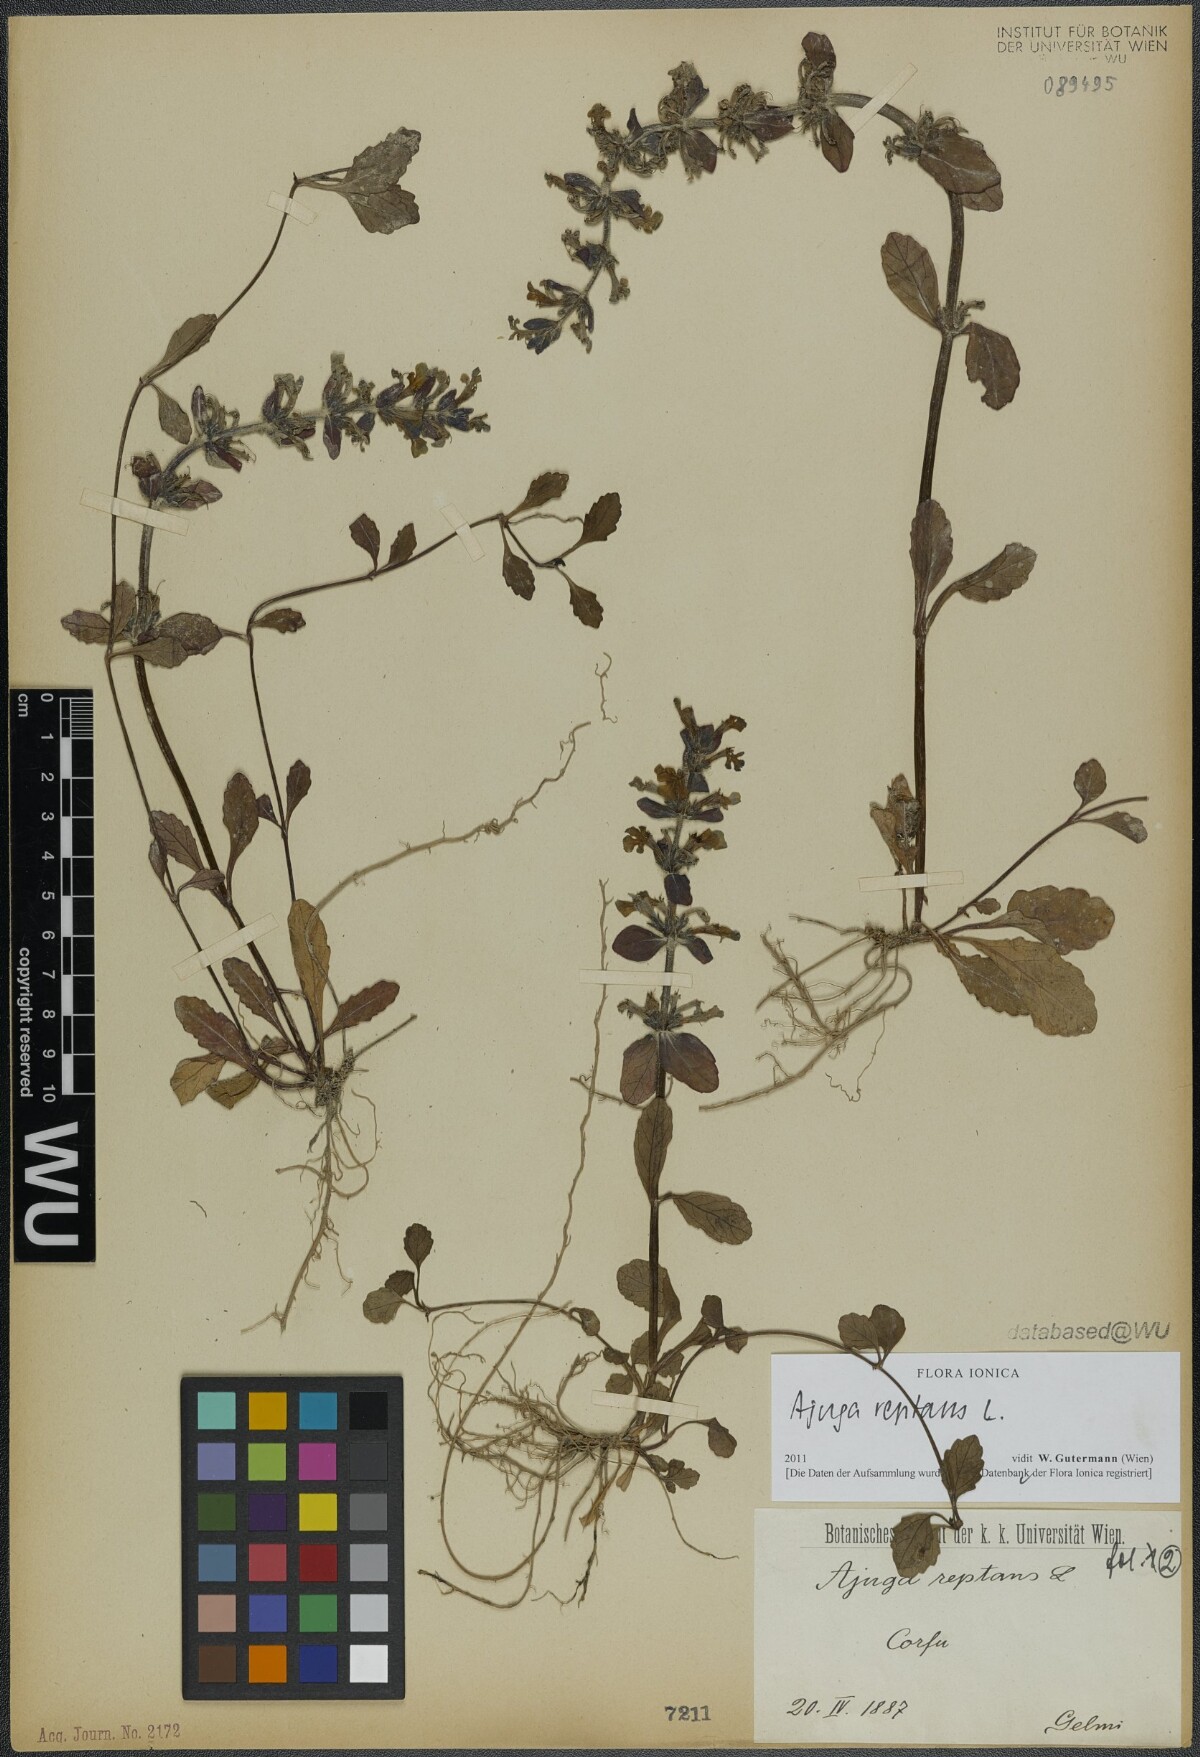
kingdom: Plantae
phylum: Tracheophyta
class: Magnoliopsida
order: Lamiales
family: Lamiaceae
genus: Ajuga
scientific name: Ajuga reptans
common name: Bugle
